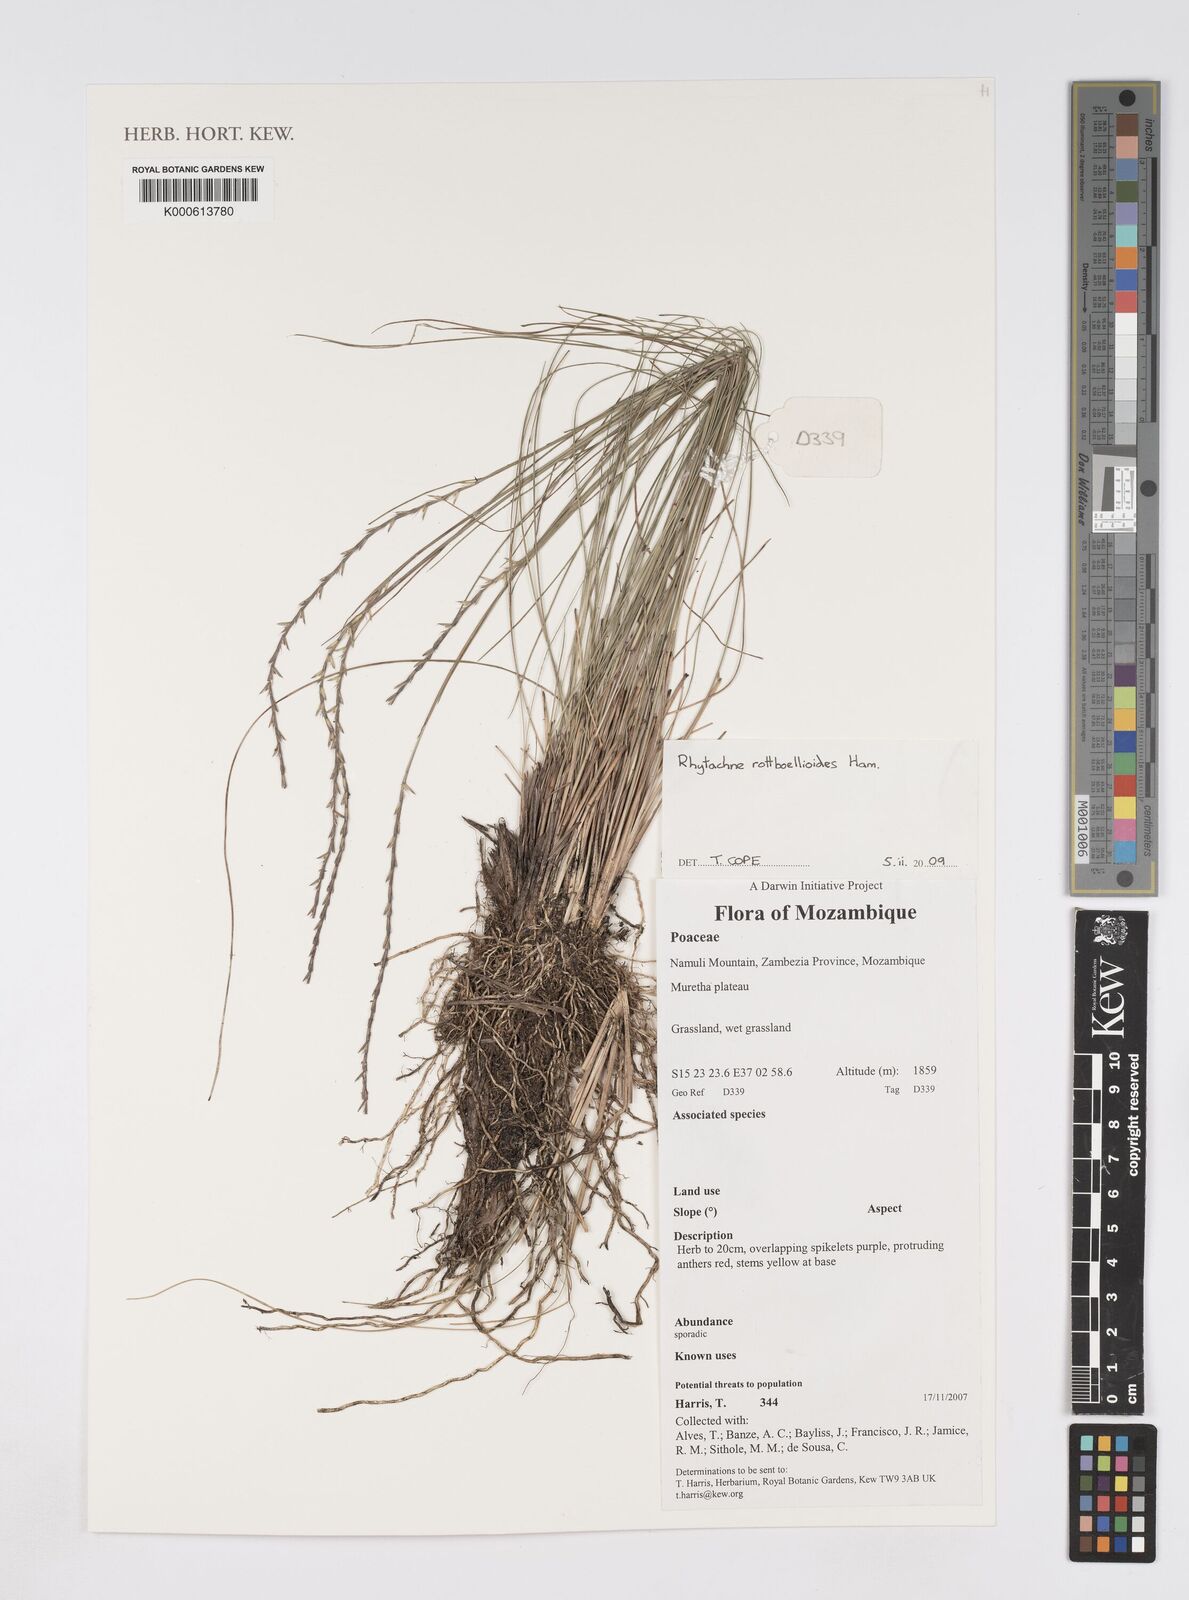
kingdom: Plantae
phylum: Tracheophyta
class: Liliopsida
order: Poales
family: Poaceae
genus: Rhytachne
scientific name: Rhytachne rottboellioides
